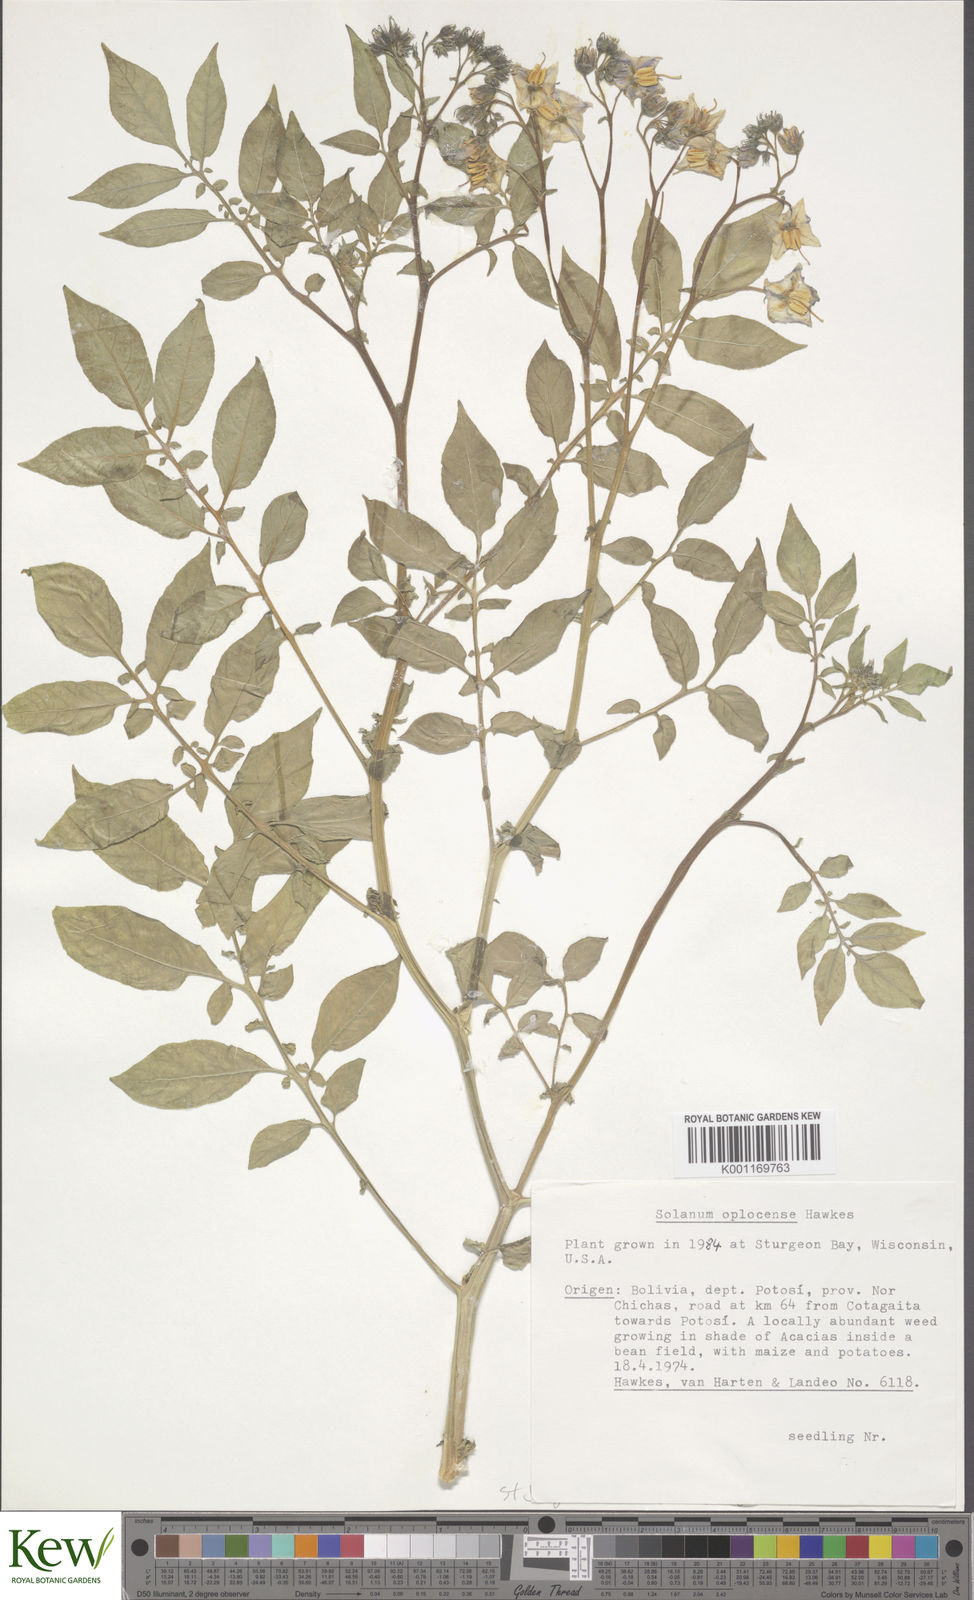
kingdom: Plantae
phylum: Tracheophyta
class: Magnoliopsida
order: Solanales
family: Solanaceae
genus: Solanum
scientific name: Solanum brevicaule
